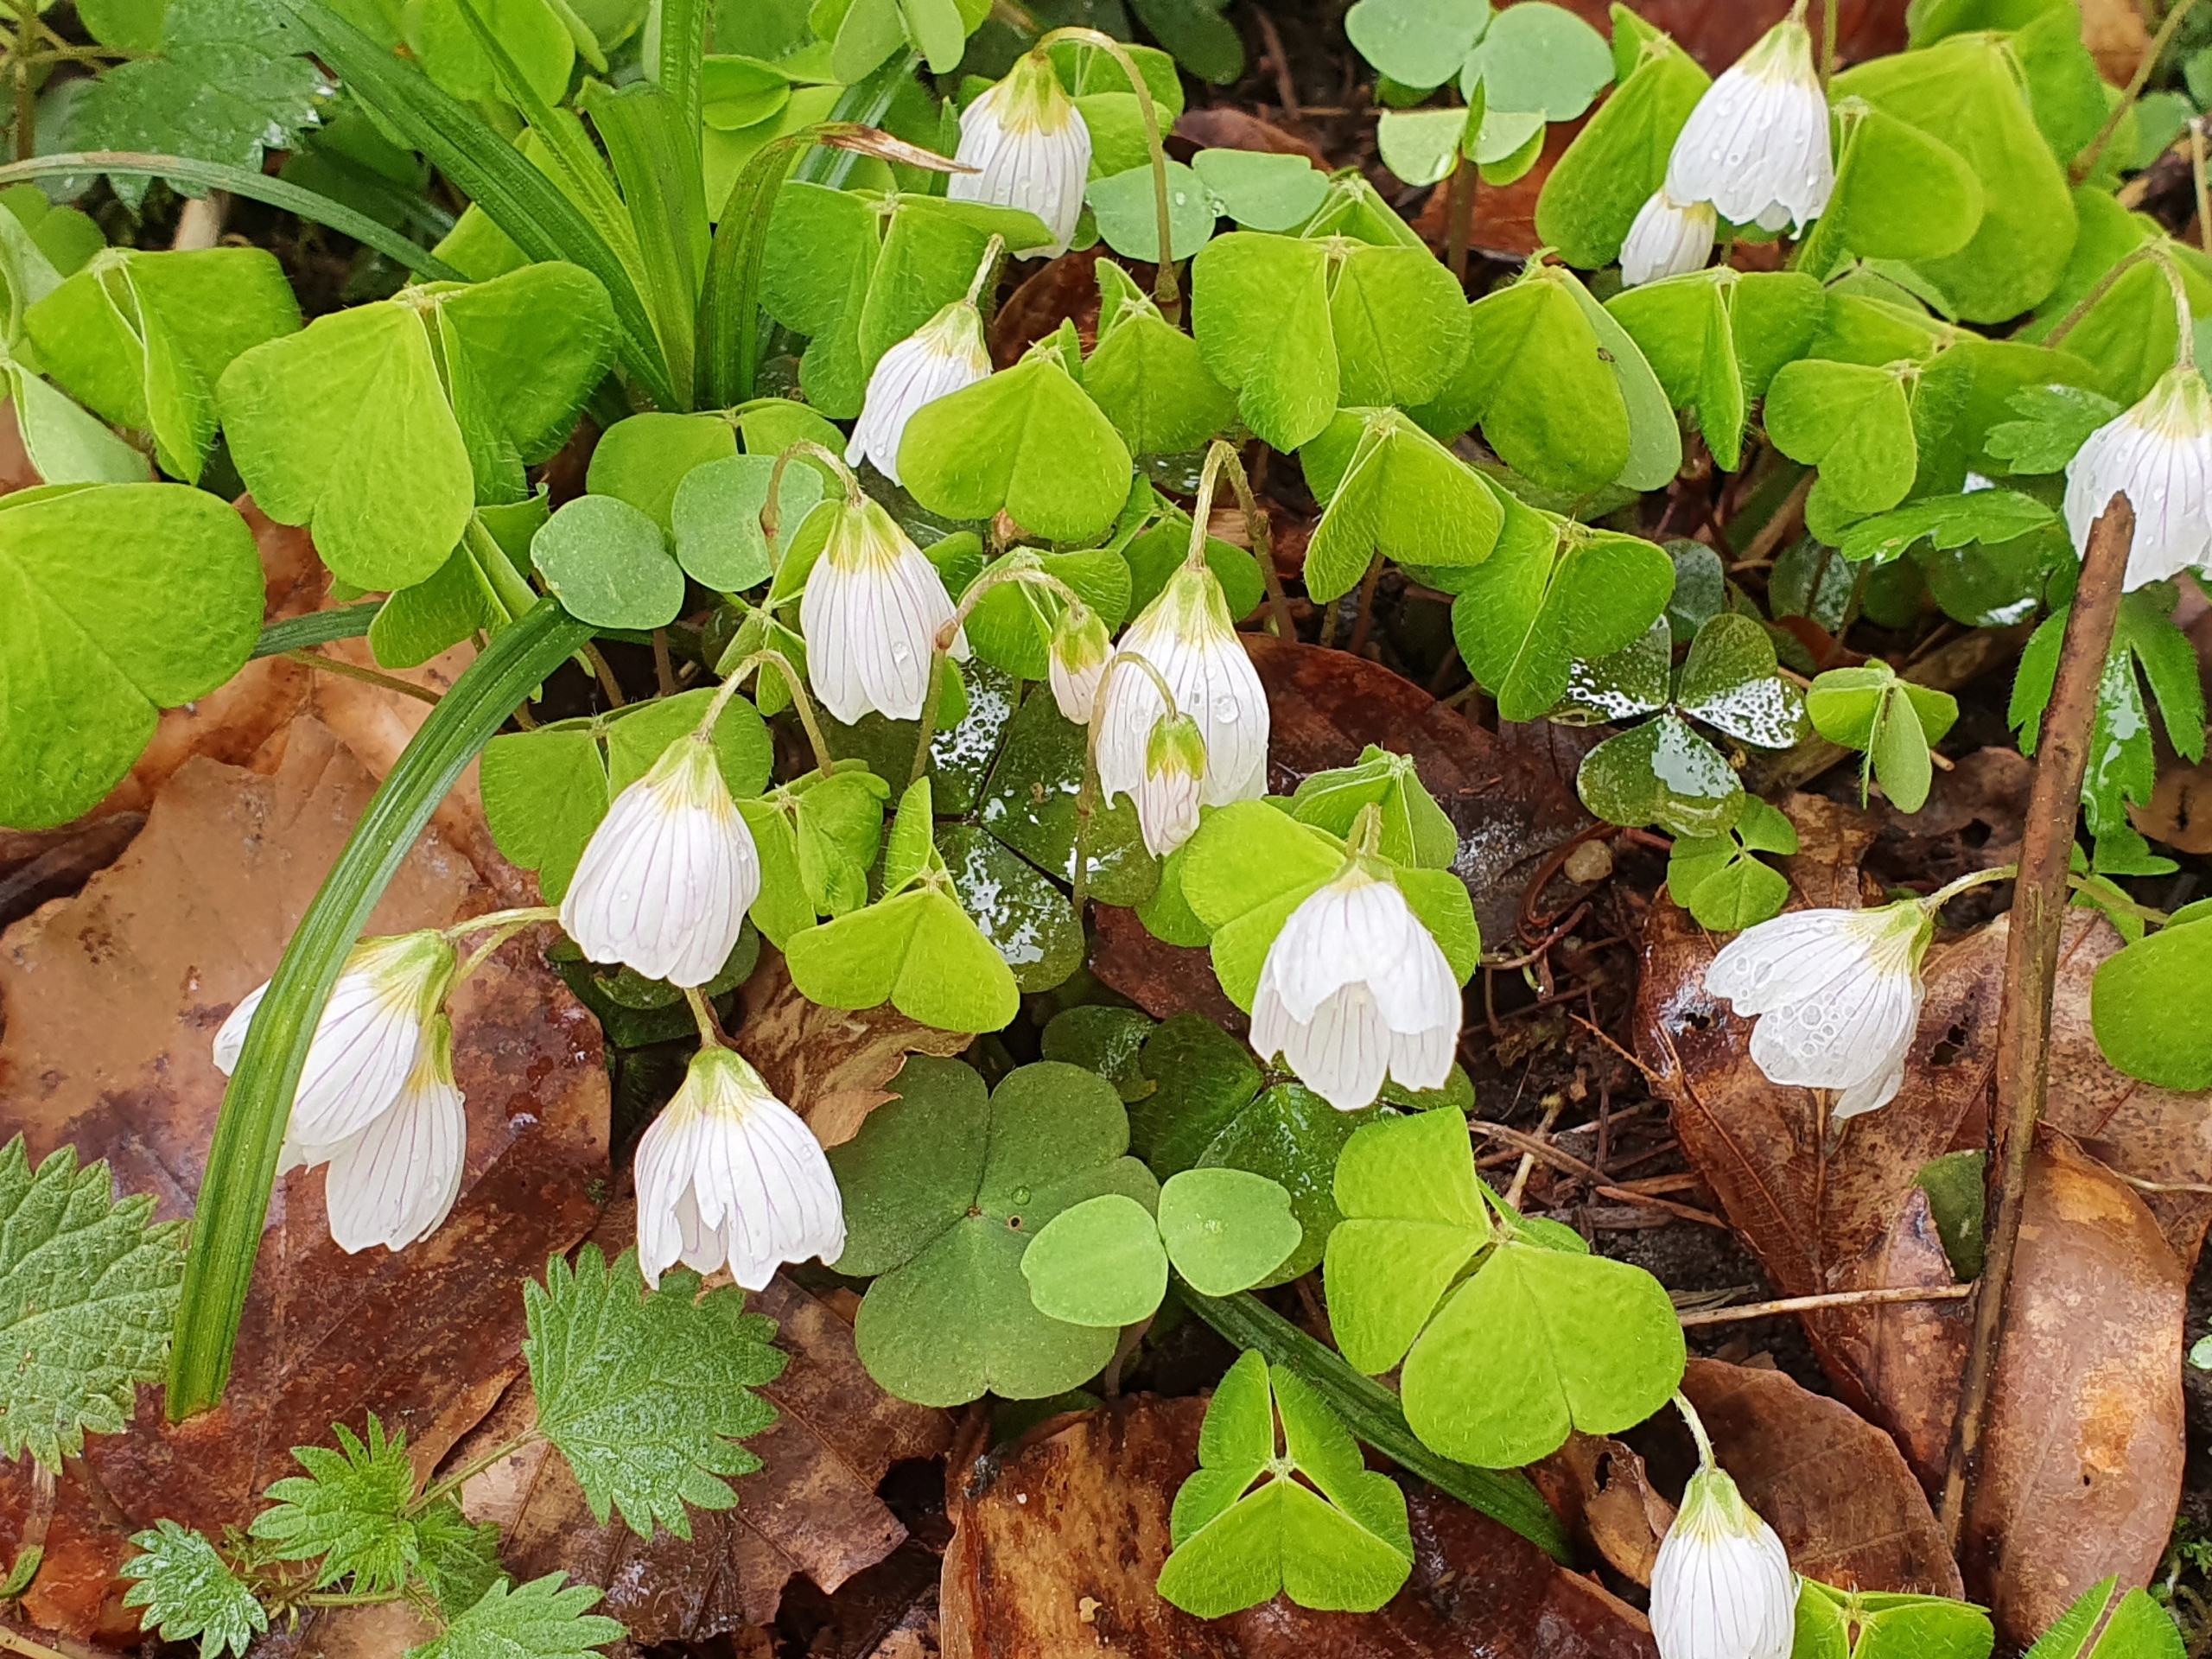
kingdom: Plantae
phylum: Tracheophyta
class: Magnoliopsida
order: Oxalidales
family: Oxalidaceae
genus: Oxalis
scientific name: Oxalis acetosella
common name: Skovsyre
